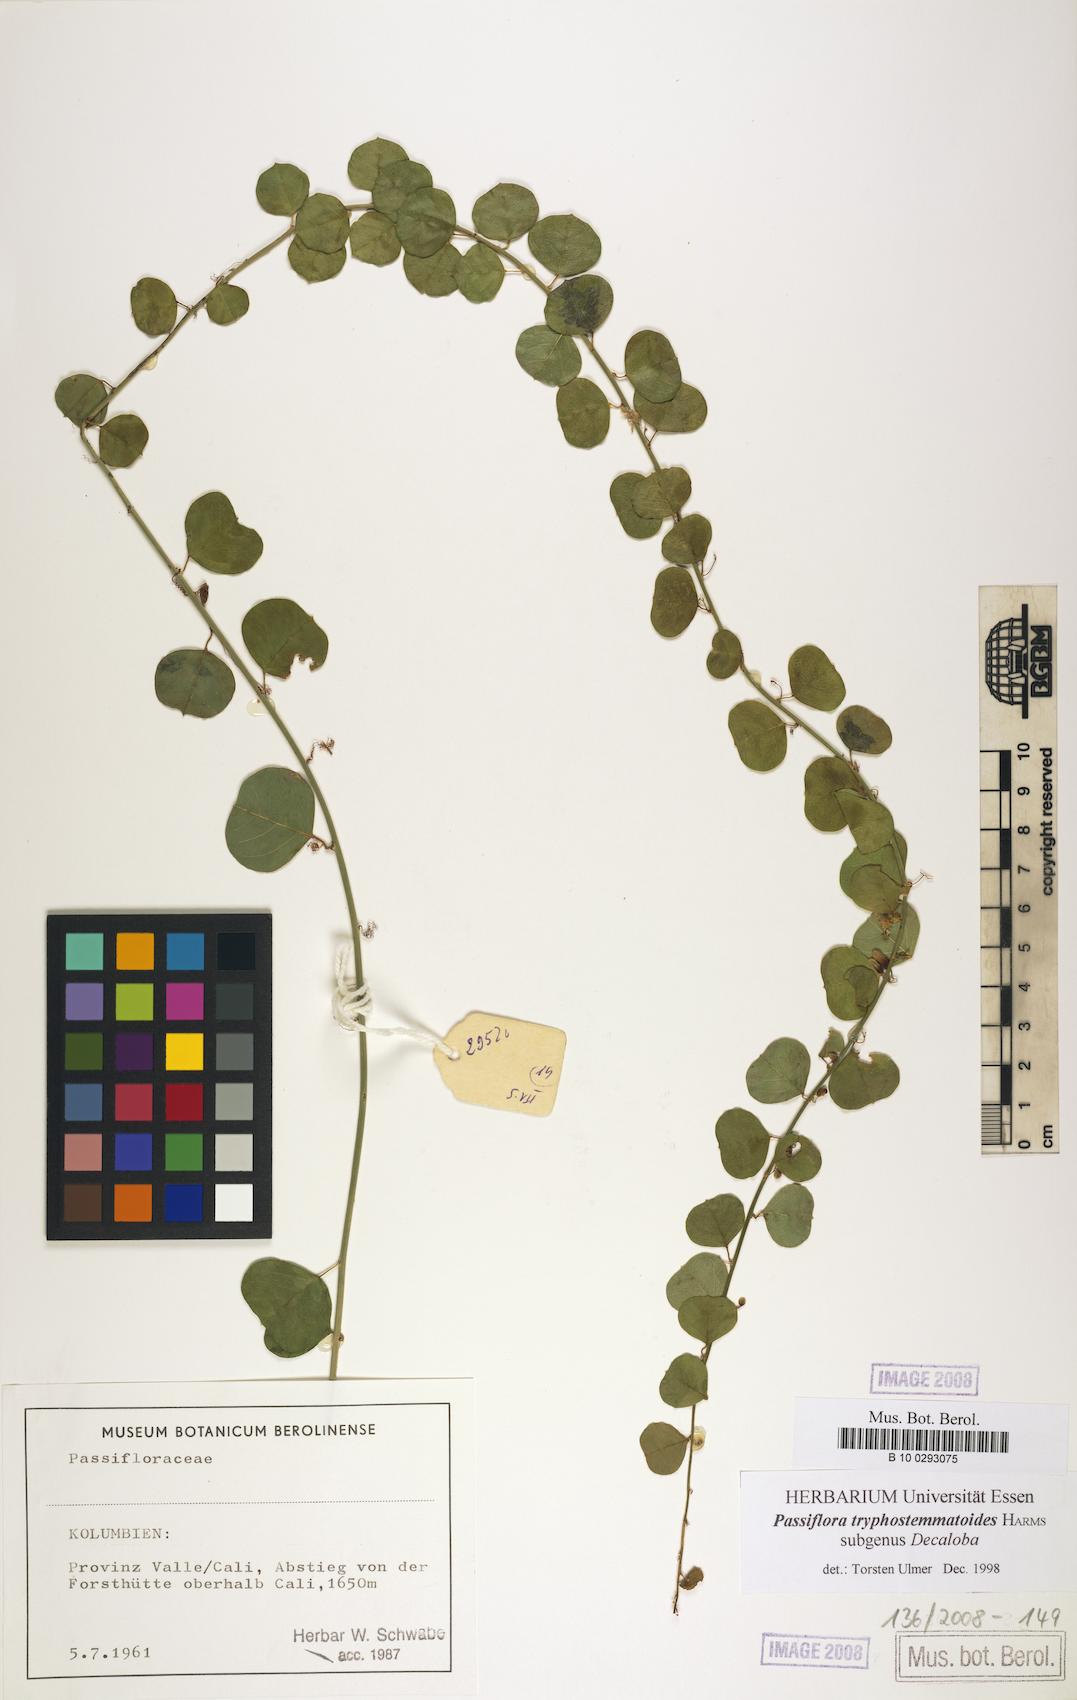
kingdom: Plantae
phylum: Tracheophyta
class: Magnoliopsida
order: Malpighiales
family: Passifloraceae
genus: Passiflora
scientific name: Passiflora tryphostemmatoides
